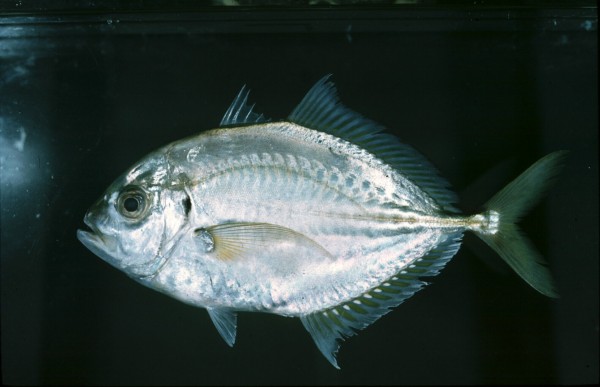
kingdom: Animalia
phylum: Chordata
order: Perciformes
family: Carangidae
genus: Carangoides
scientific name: Carangoides malabaricus
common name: Malabar trevally
